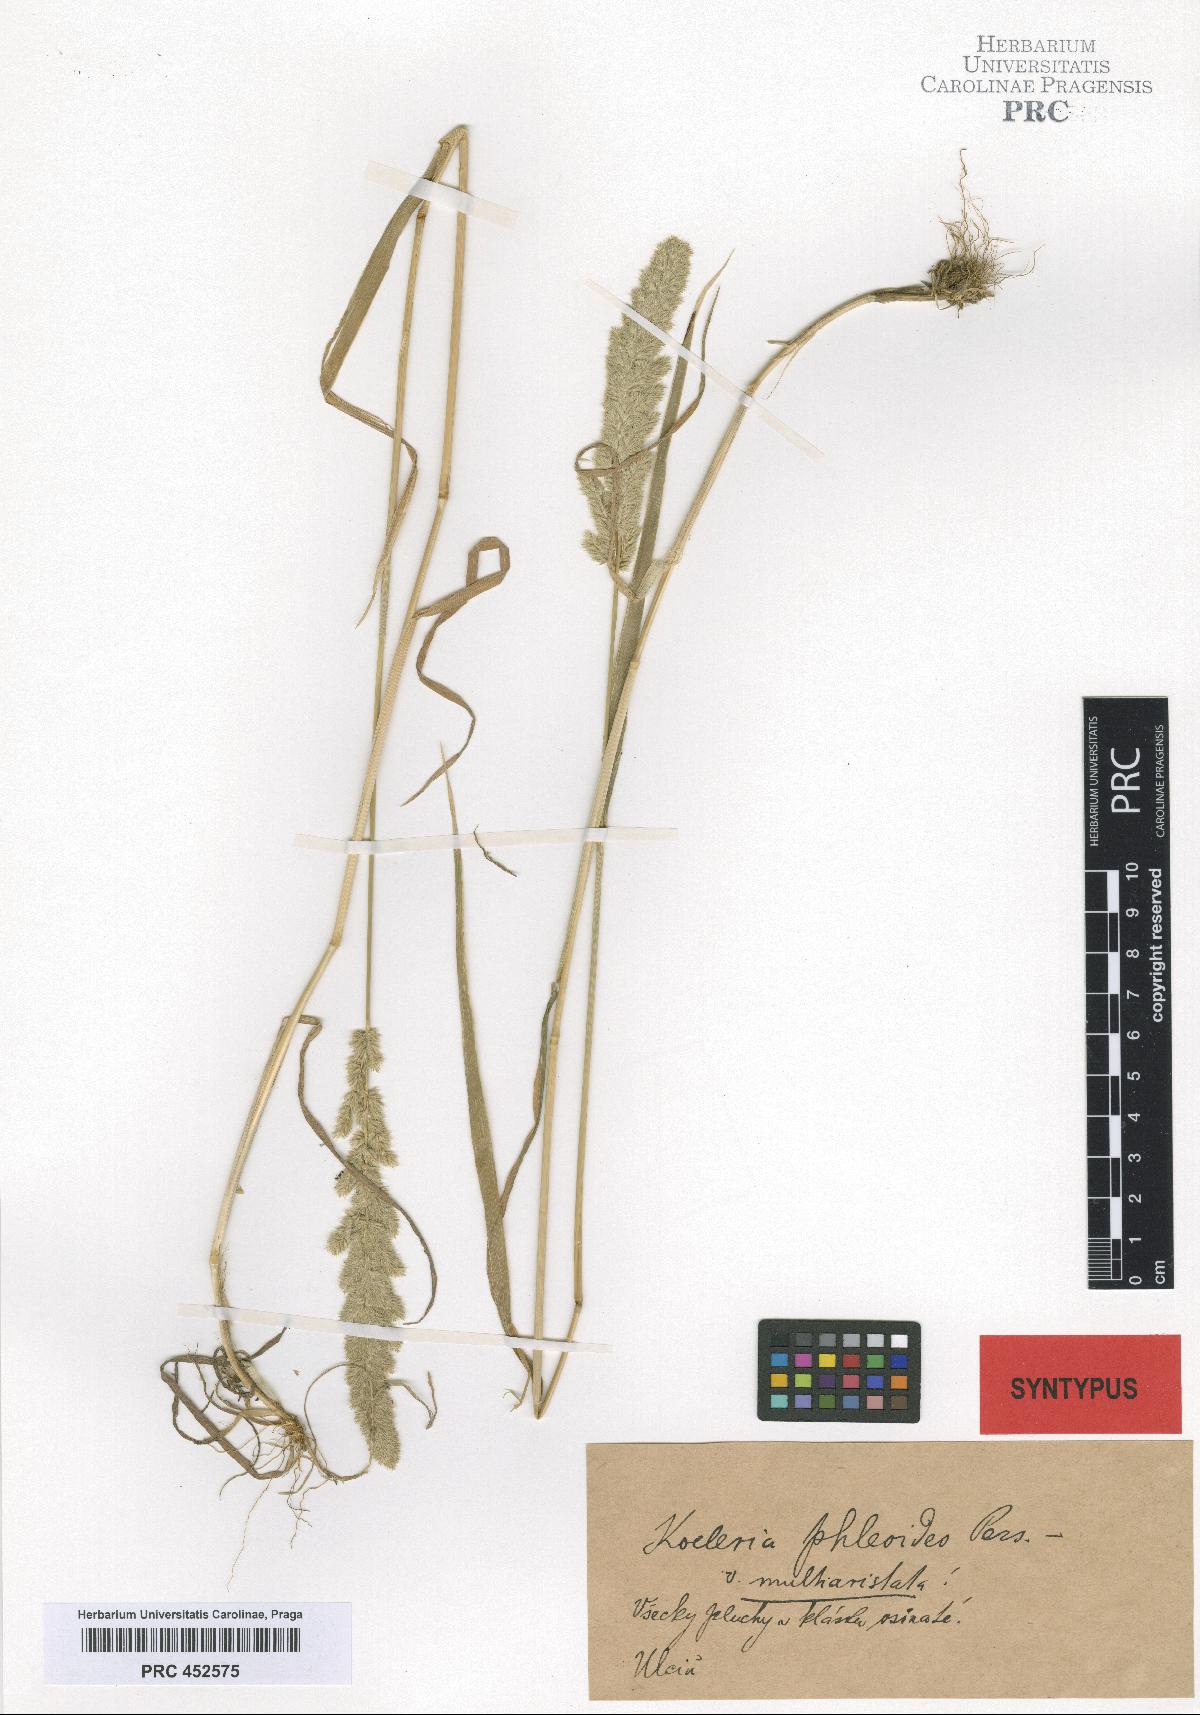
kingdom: Plantae
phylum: Tracheophyta
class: Liliopsida
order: Poales
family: Poaceae
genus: Rostraria
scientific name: Rostraria cristata
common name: Mediterranean hair-grass
